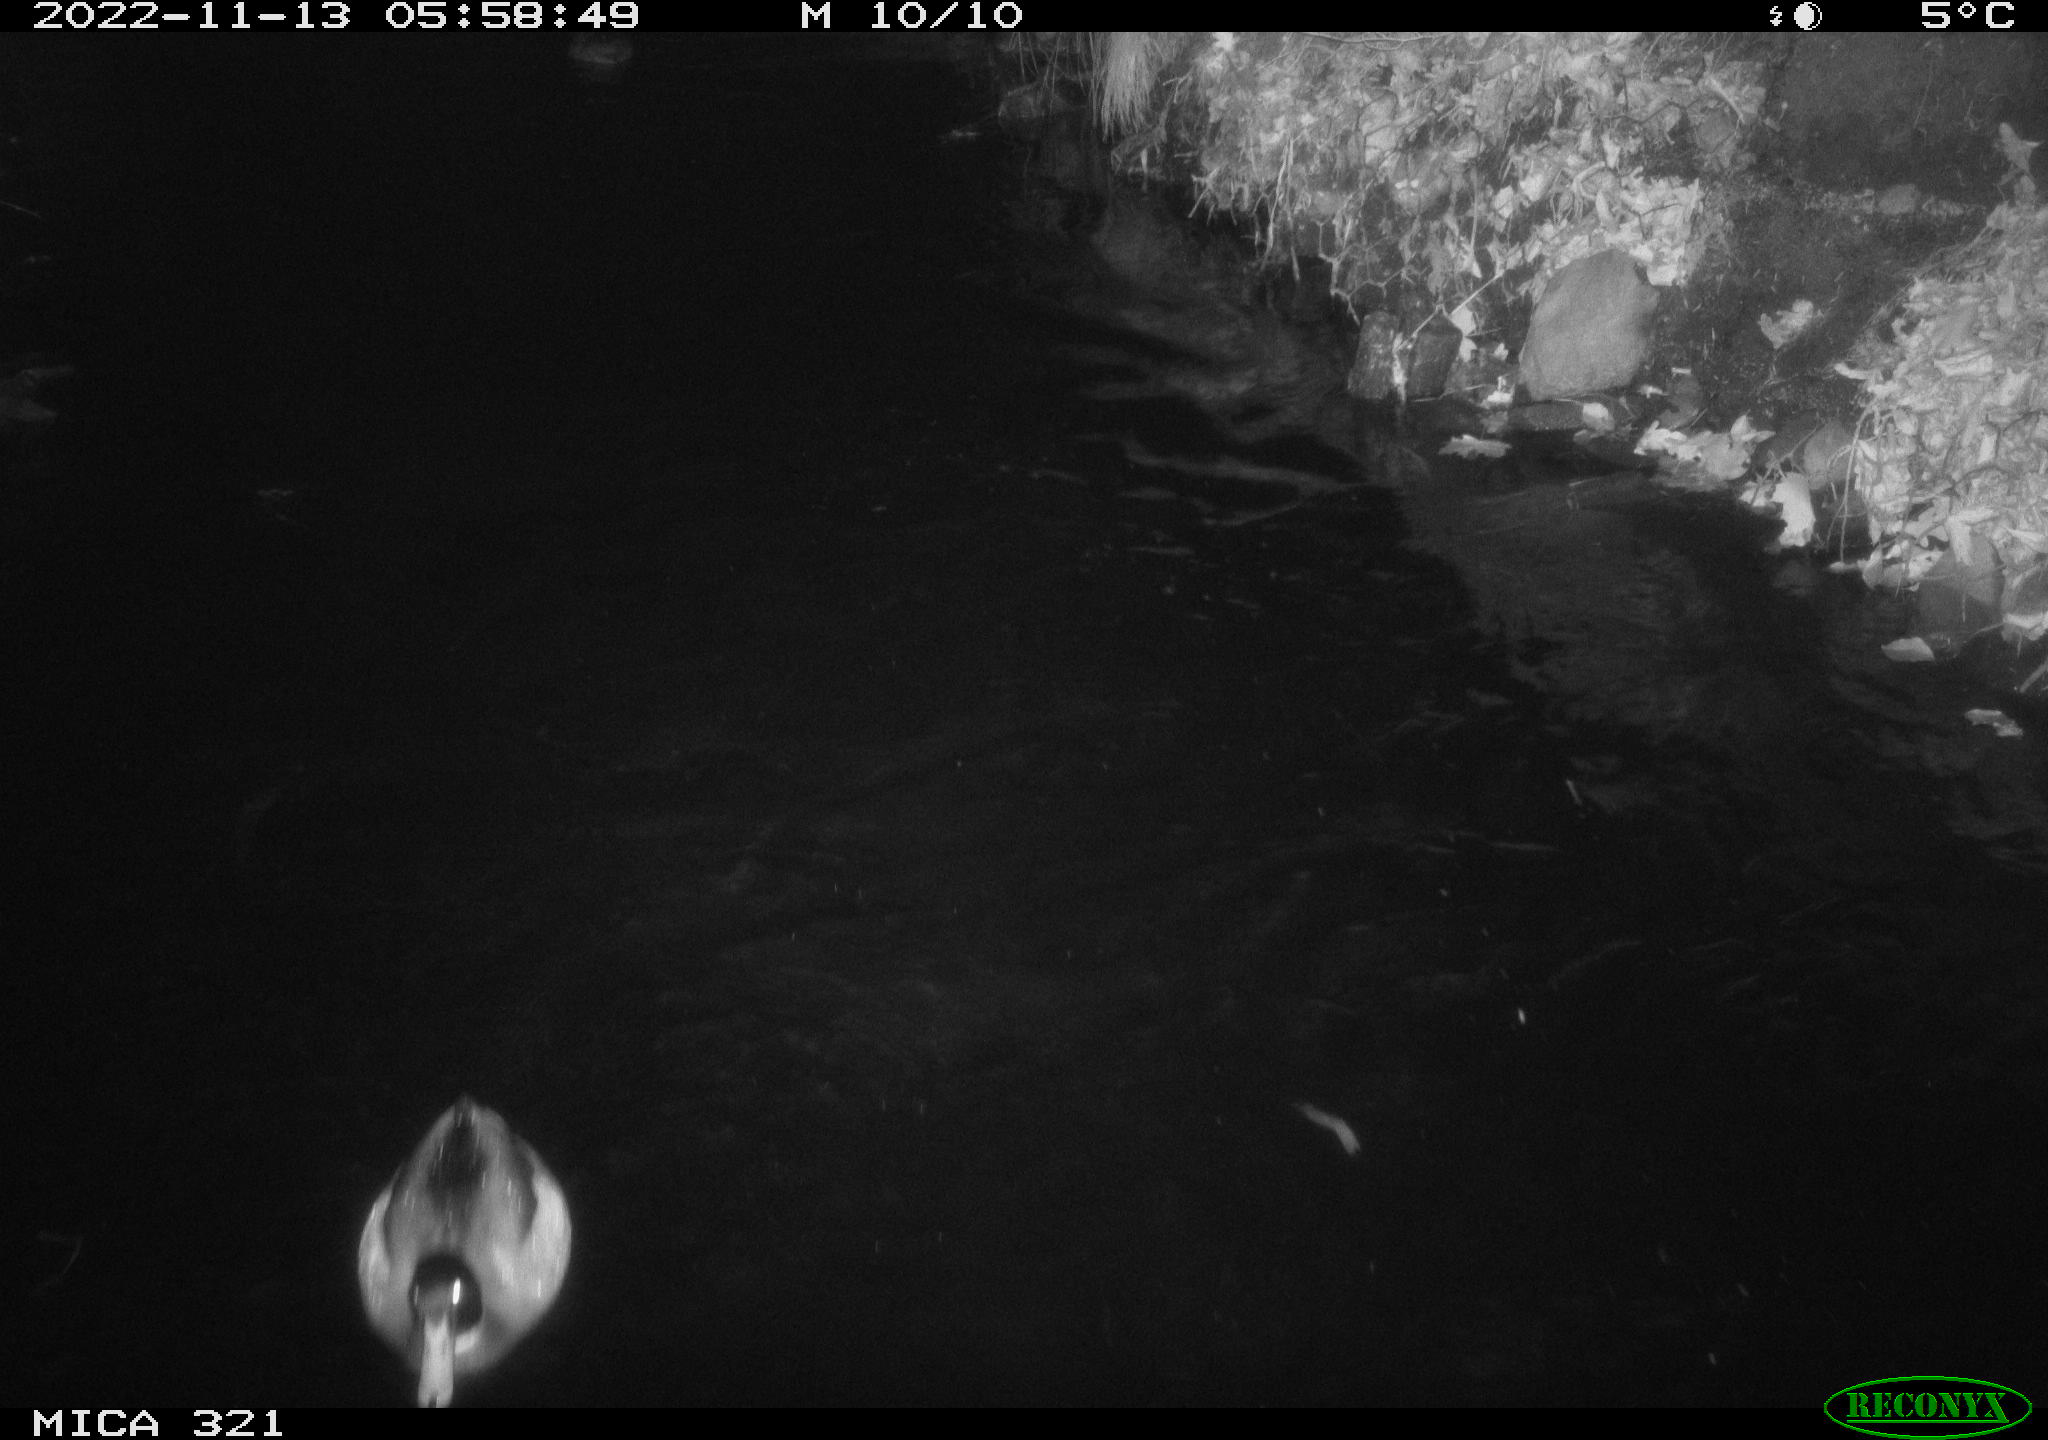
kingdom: Animalia
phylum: Chordata
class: Aves
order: Anseriformes
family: Anatidae
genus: Anas
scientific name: Anas
